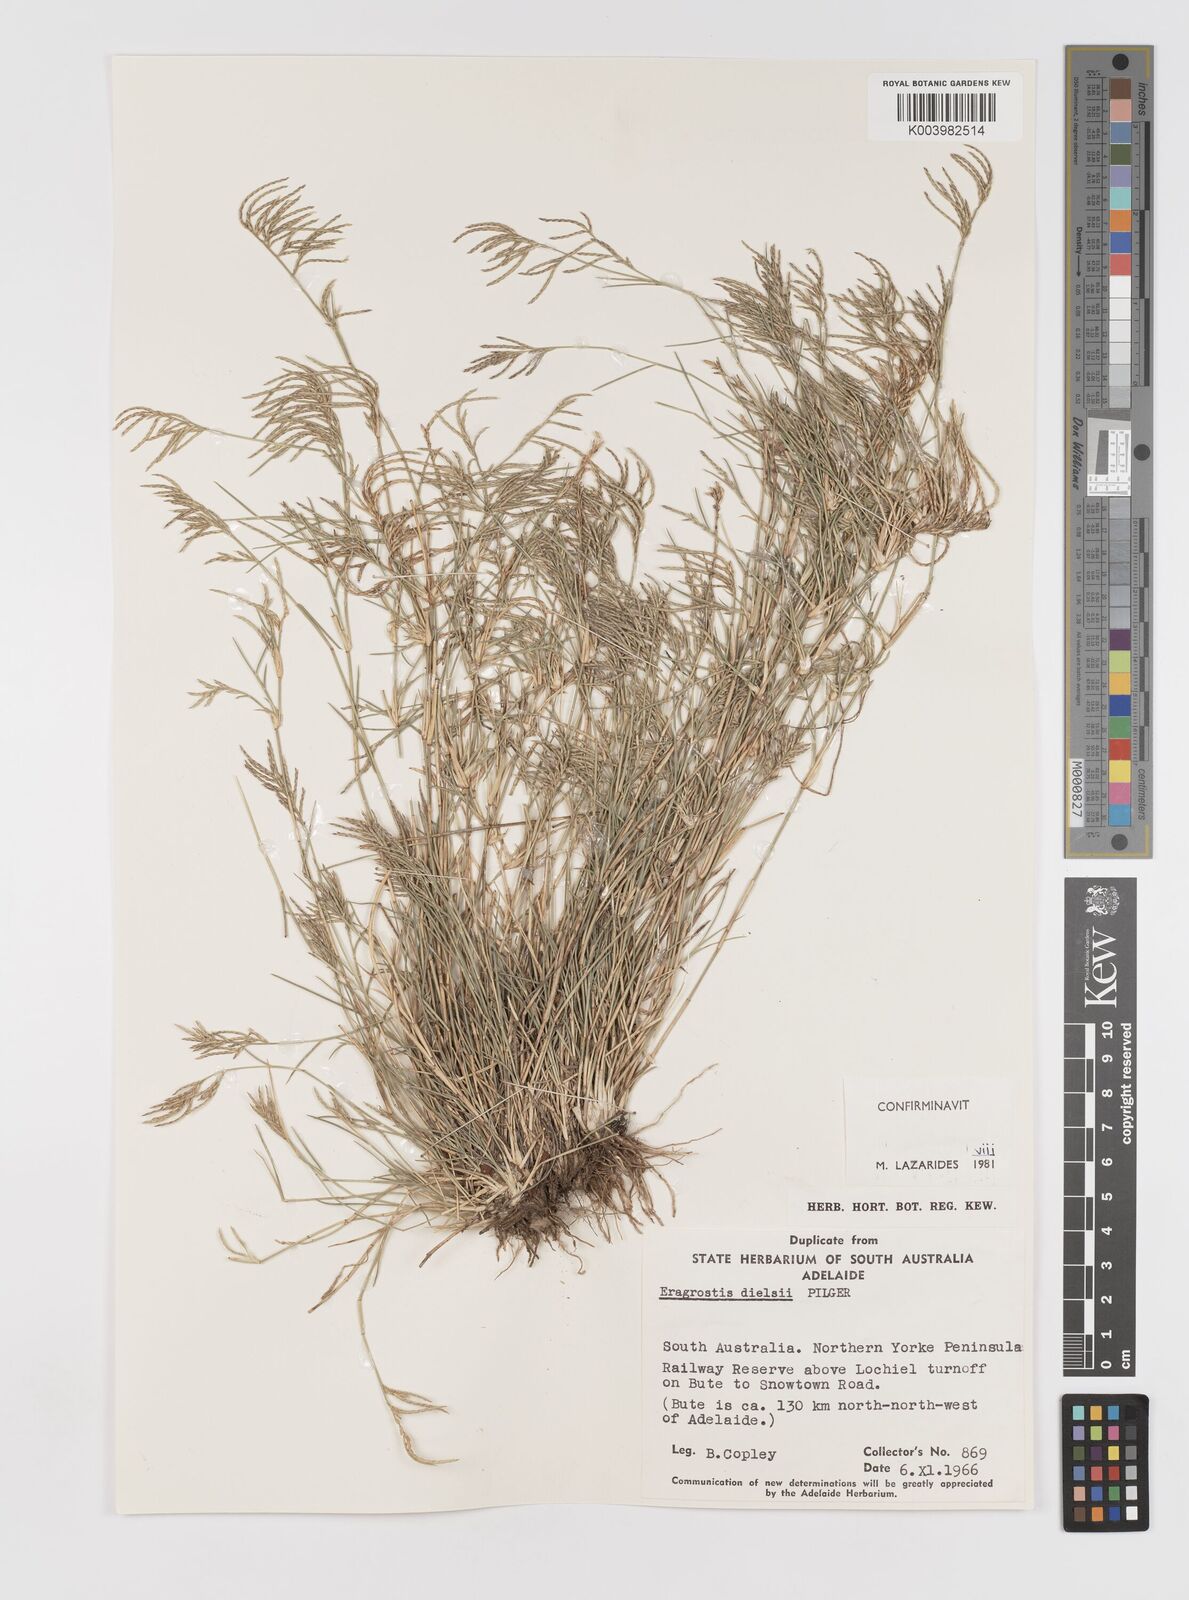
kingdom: Plantae
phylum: Tracheophyta
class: Liliopsida
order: Poales
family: Poaceae
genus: Eragrostis
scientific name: Eragrostis dielsii
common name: Lovegrass
